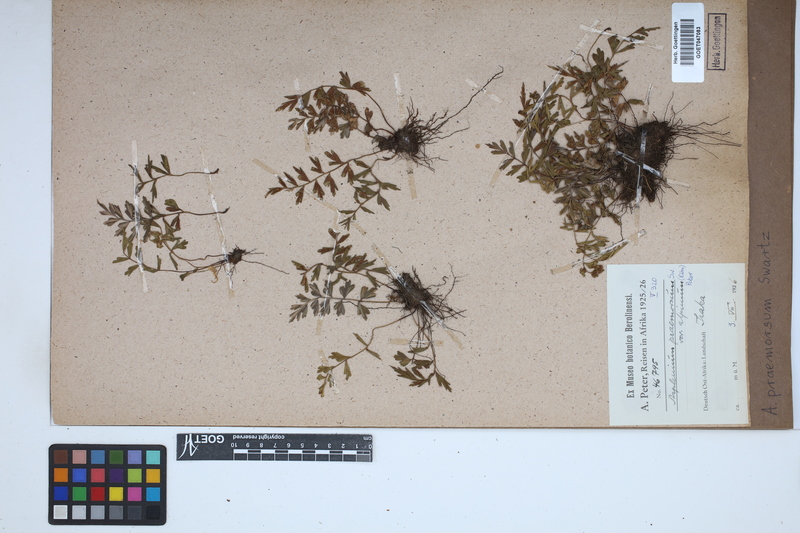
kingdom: Plantae
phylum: Tracheophyta
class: Polypodiopsida
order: Polypodiales
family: Aspleniaceae
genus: Asplenium
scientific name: Asplenium praemorsum
